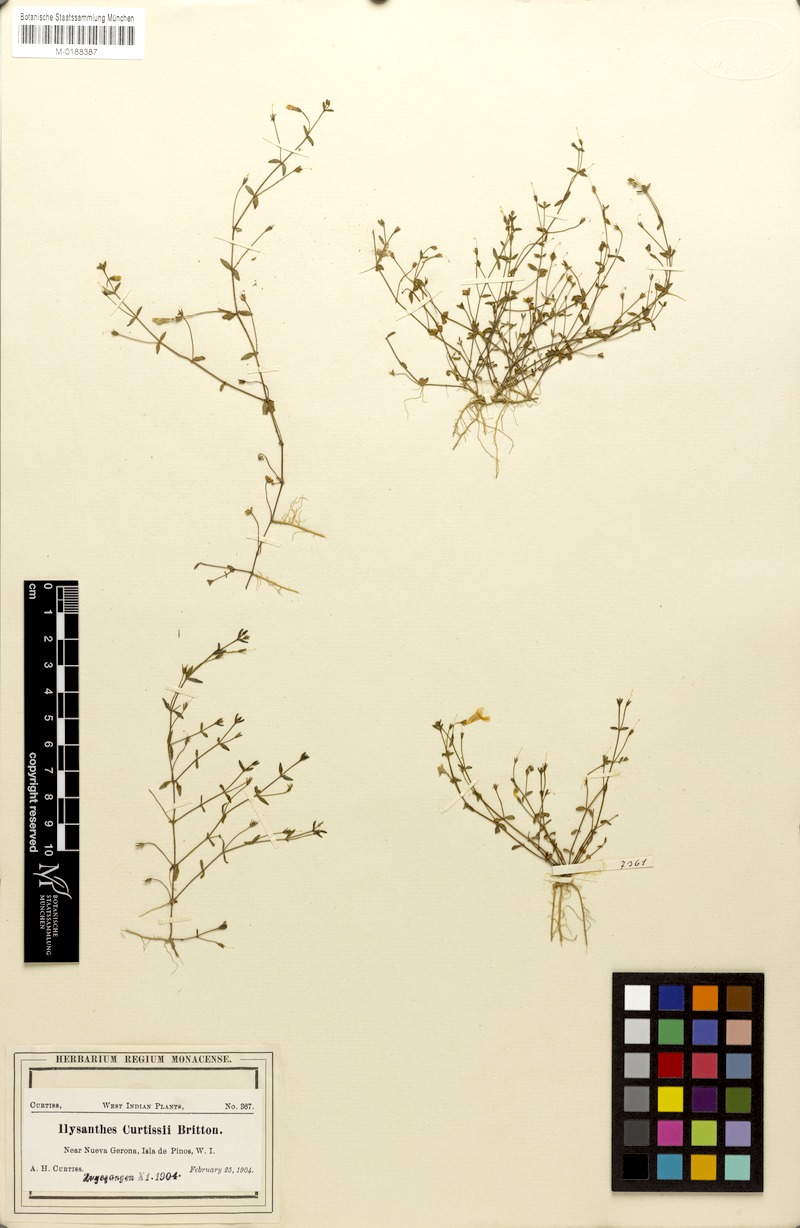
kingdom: Plantae
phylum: Tracheophyta
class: Magnoliopsida
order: Lamiales
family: Linderniaceae
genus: Lindernia
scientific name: Lindernia
